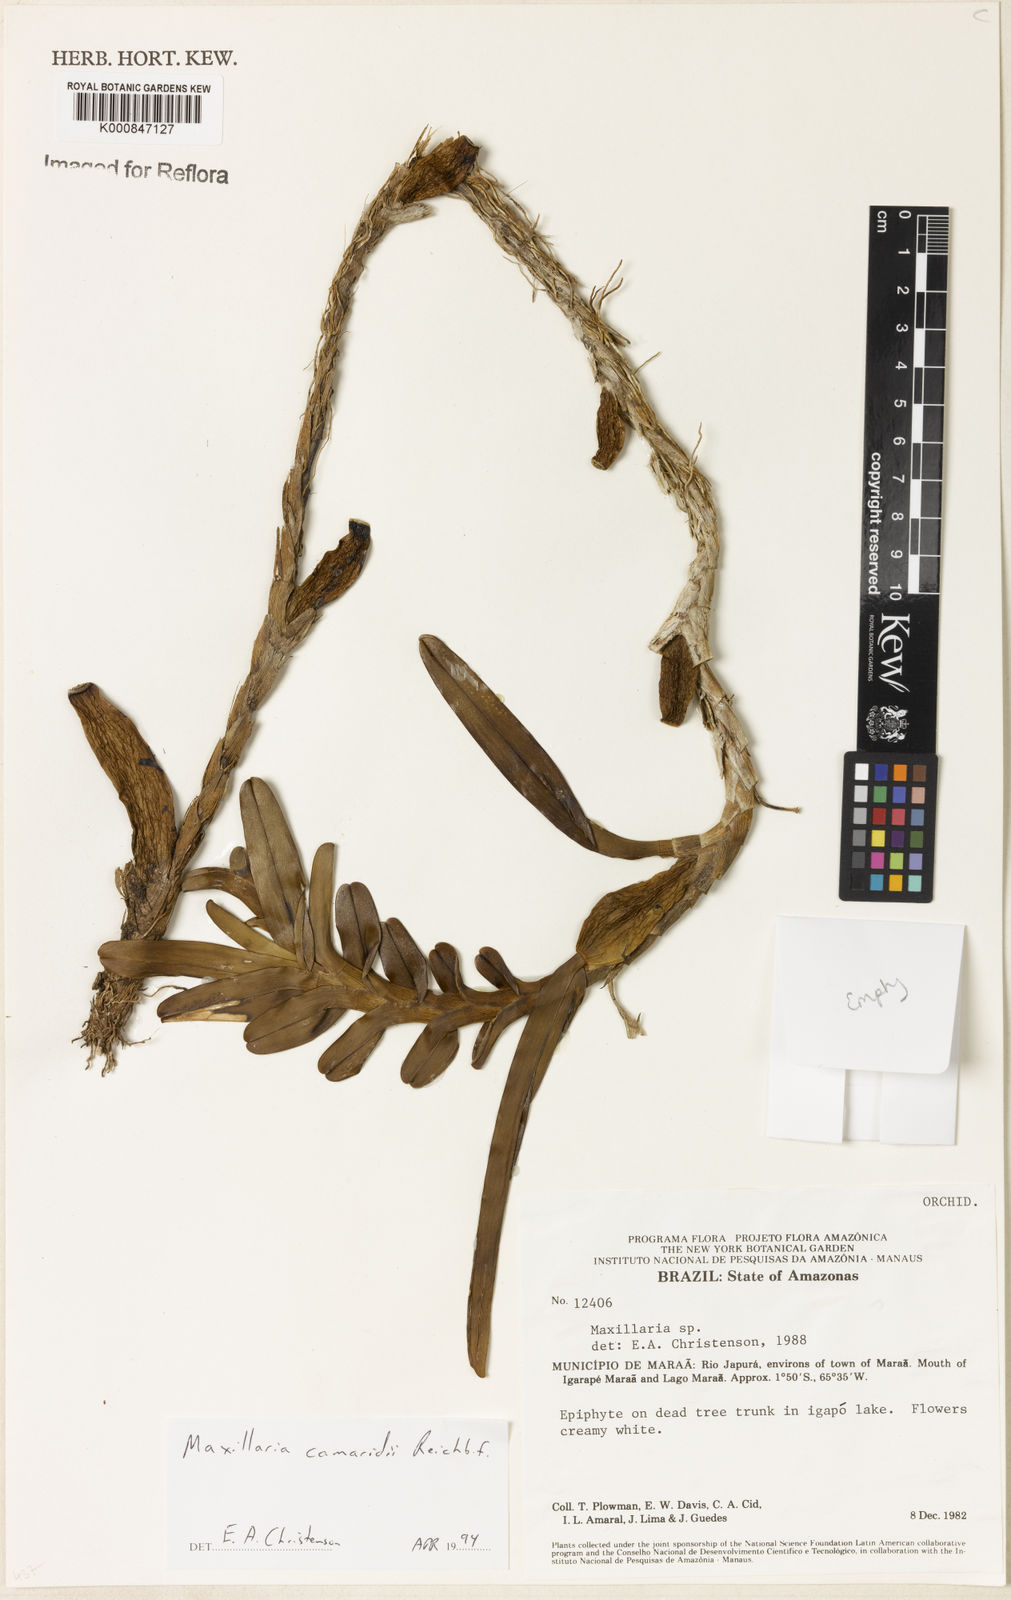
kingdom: Plantae
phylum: Tracheophyta
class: Liliopsida
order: Asparagales
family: Orchidaceae
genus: Maxillaria
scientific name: Maxillaria lutescens
